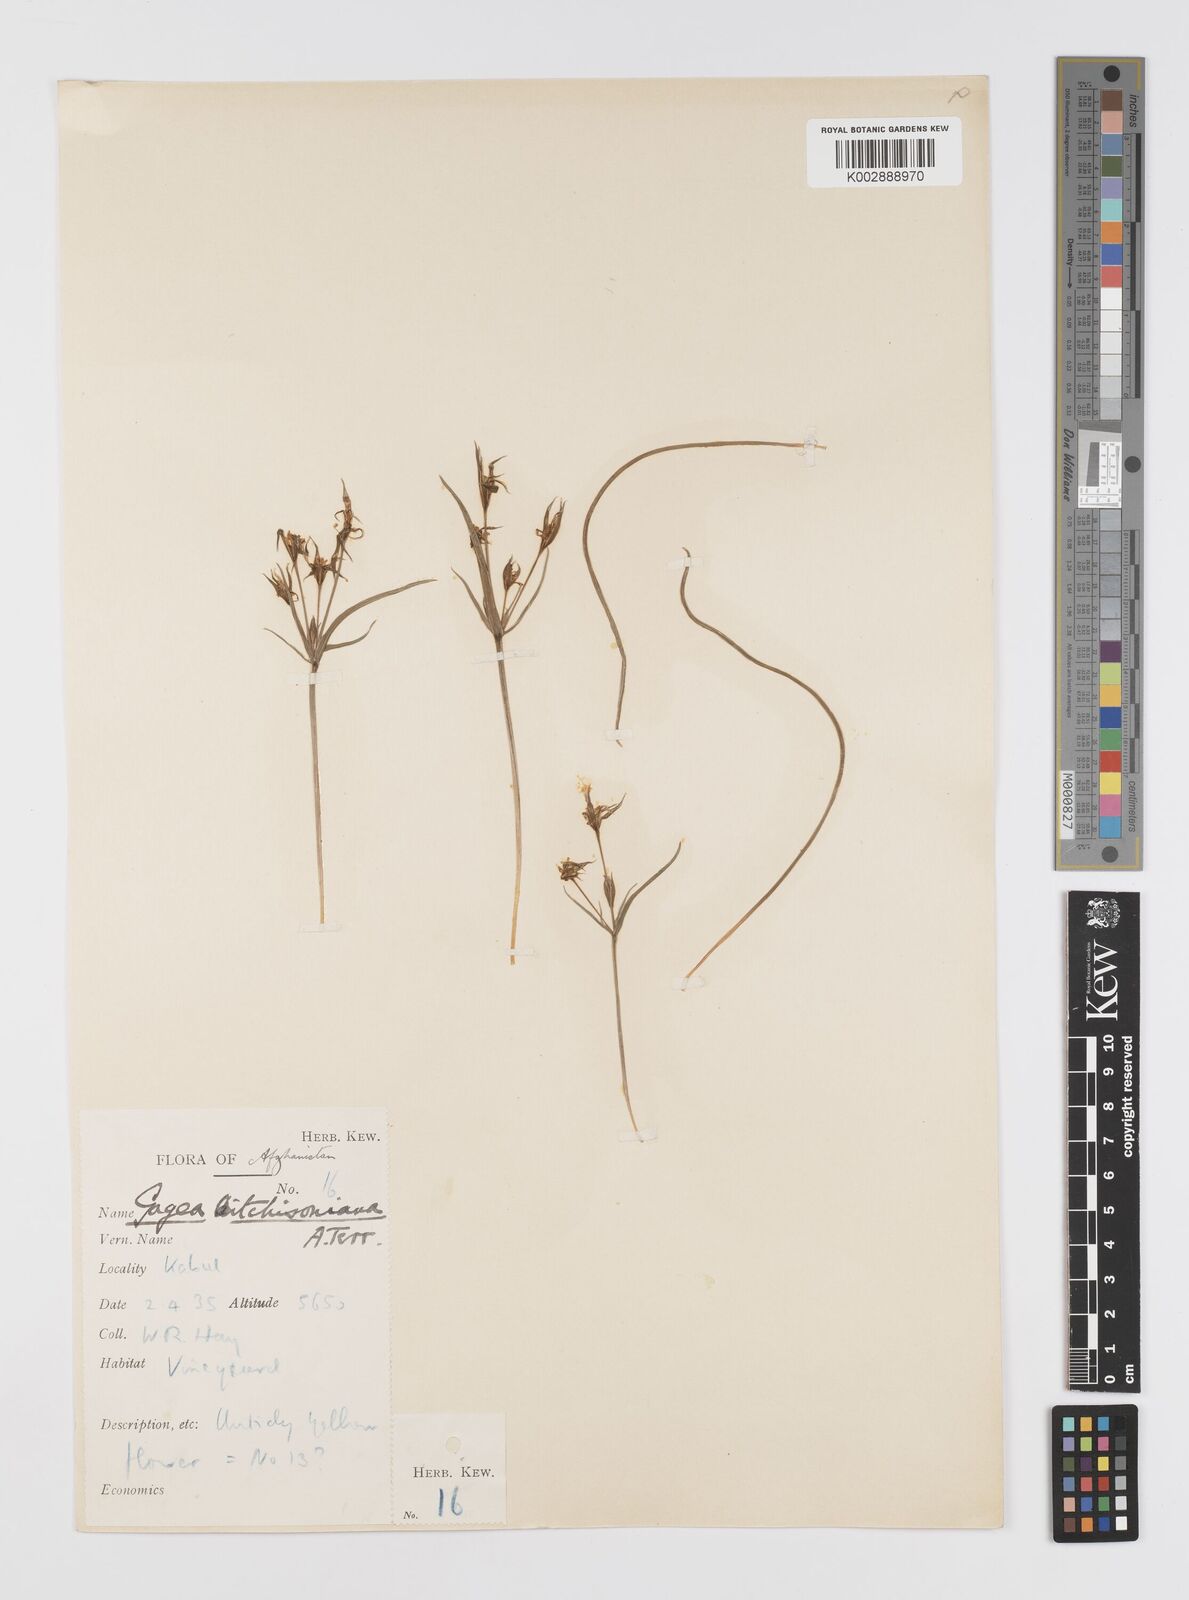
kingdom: Plantae
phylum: Tracheophyta
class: Liliopsida
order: Liliales
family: Liliaceae
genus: Gagea
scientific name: Gagea
